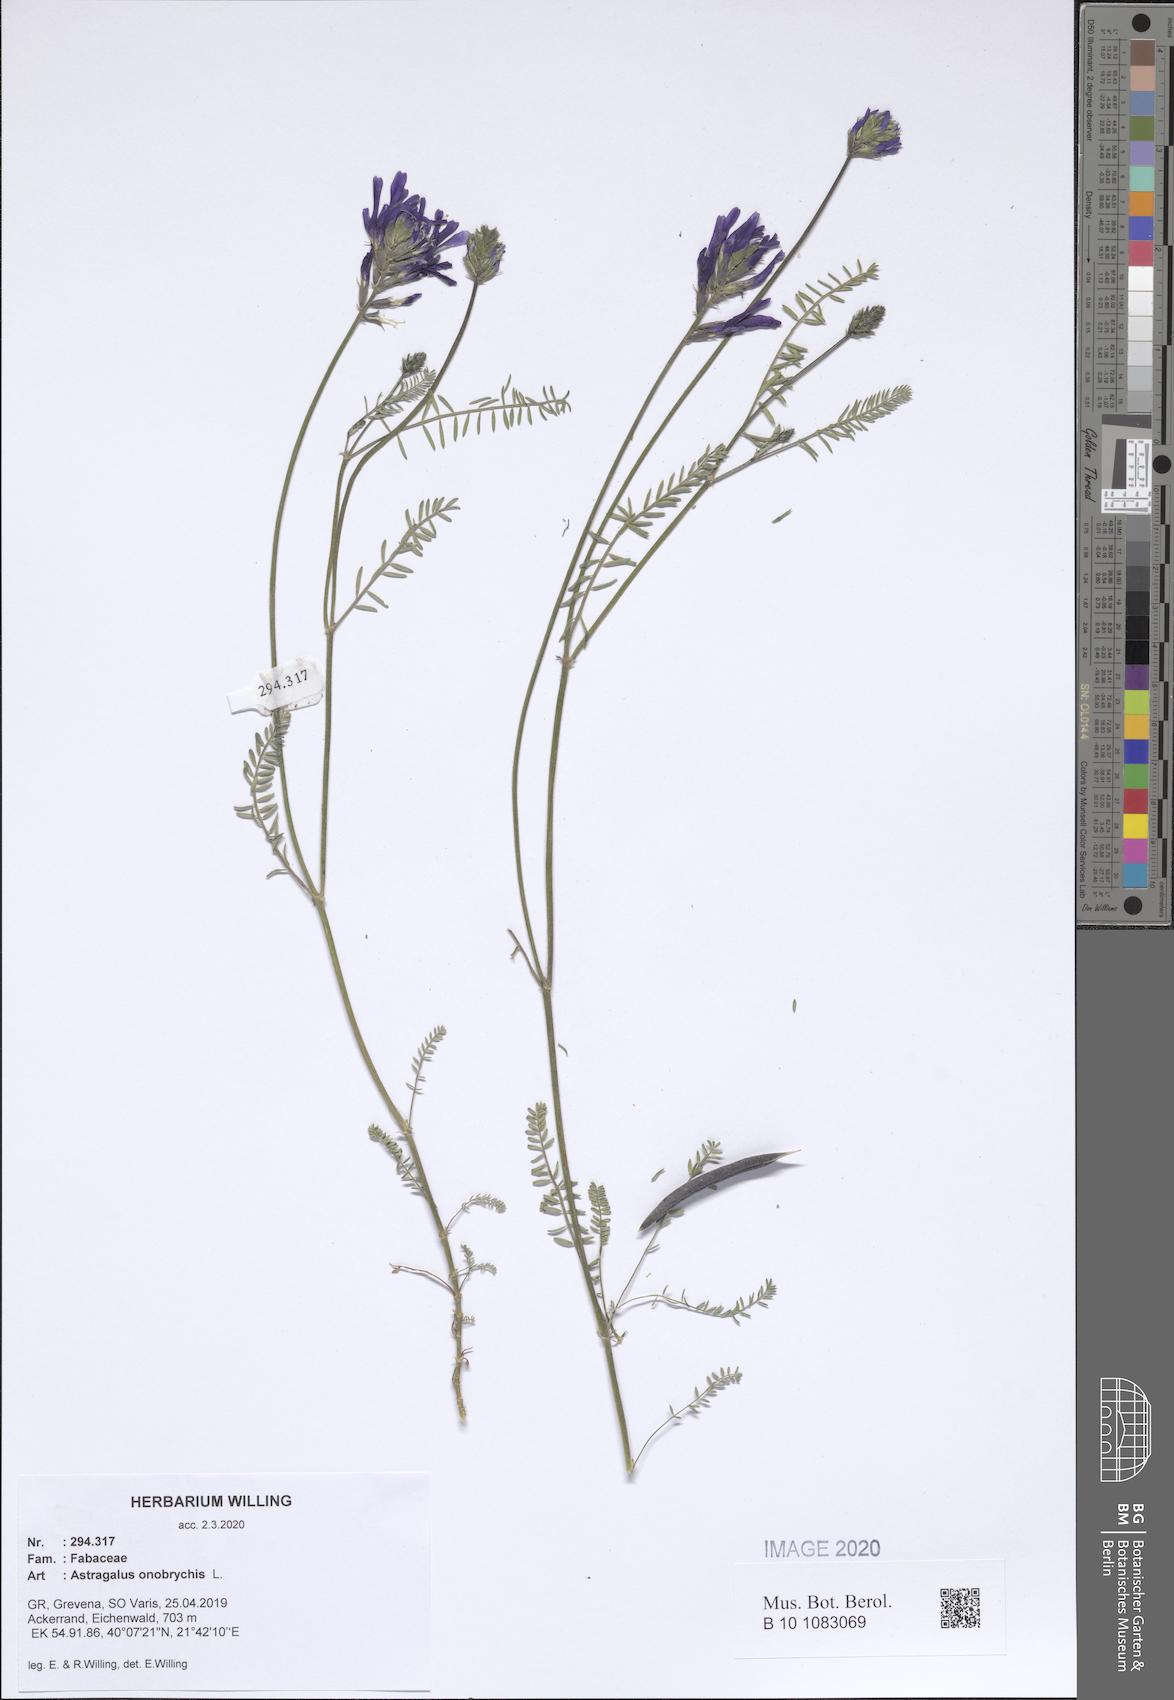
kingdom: Plantae
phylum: Tracheophyta
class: Magnoliopsida
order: Fabales
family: Fabaceae
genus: Astragalus
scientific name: Astragalus onobrychis
